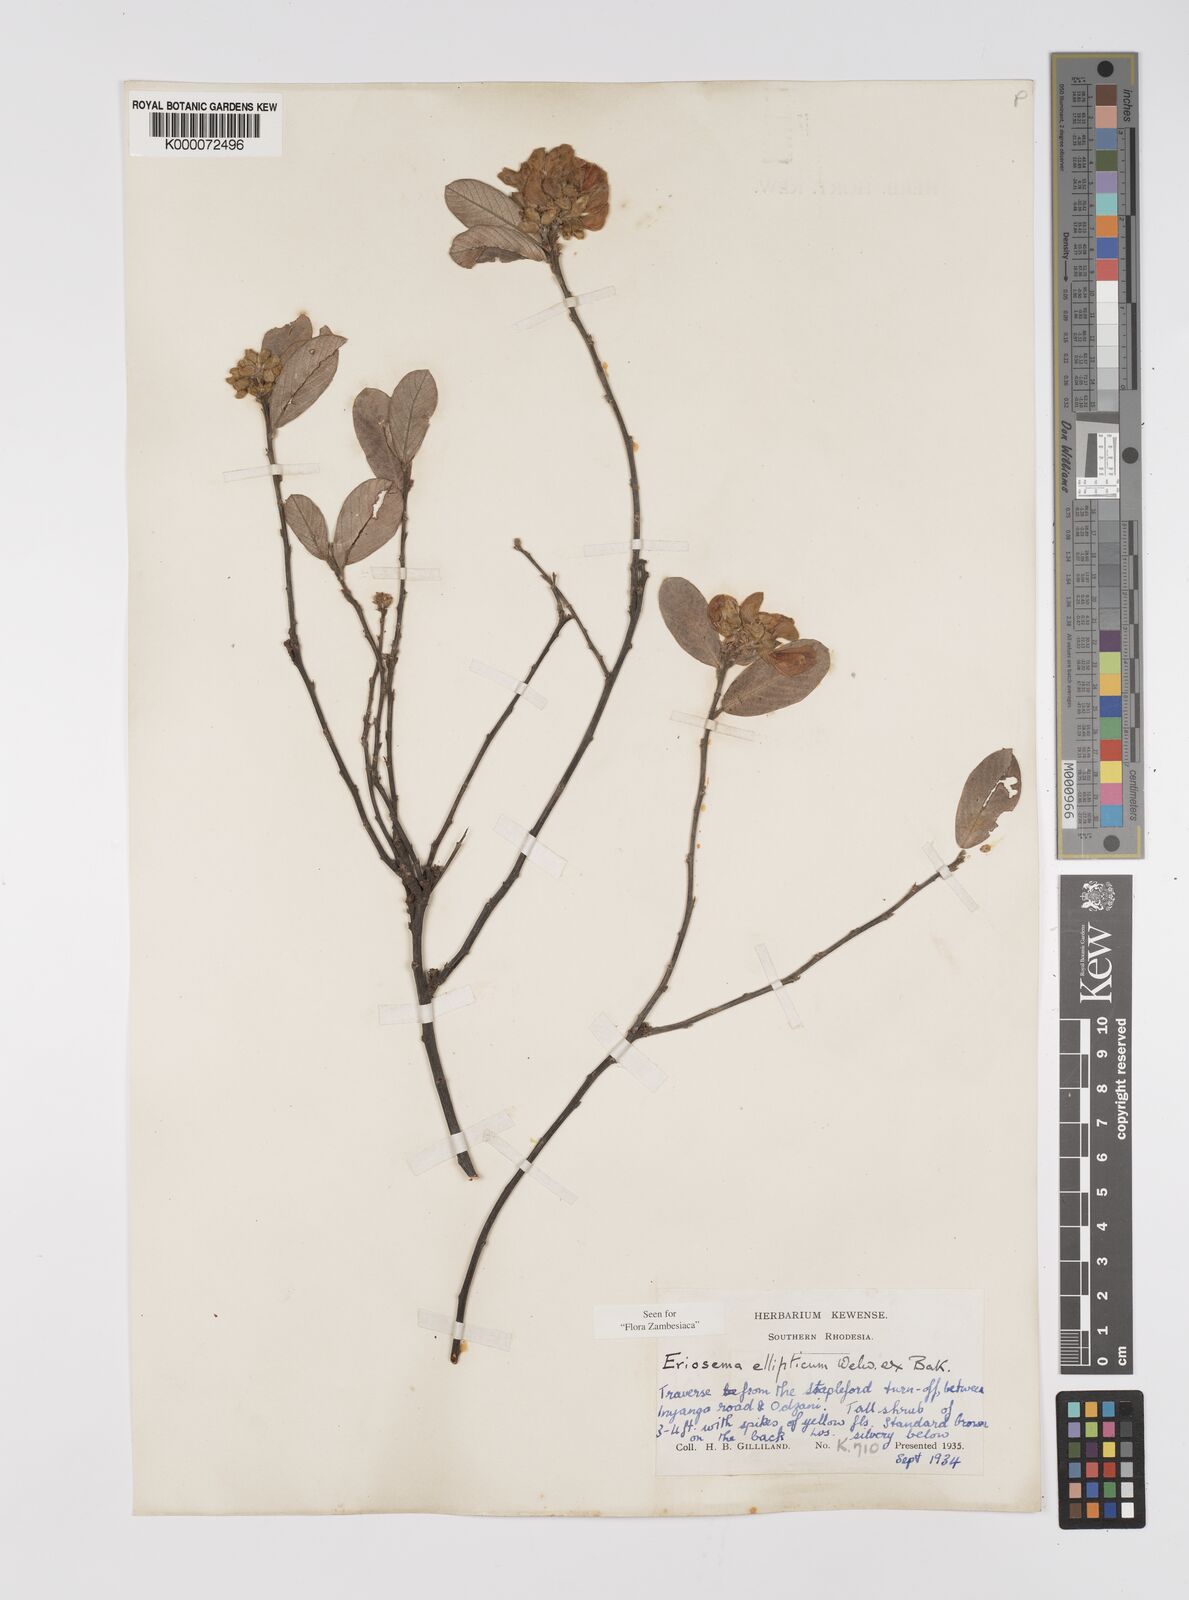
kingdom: Plantae
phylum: Tracheophyta
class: Magnoliopsida
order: Fabales
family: Fabaceae
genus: Eriosema
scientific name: Eriosema ellipticum
